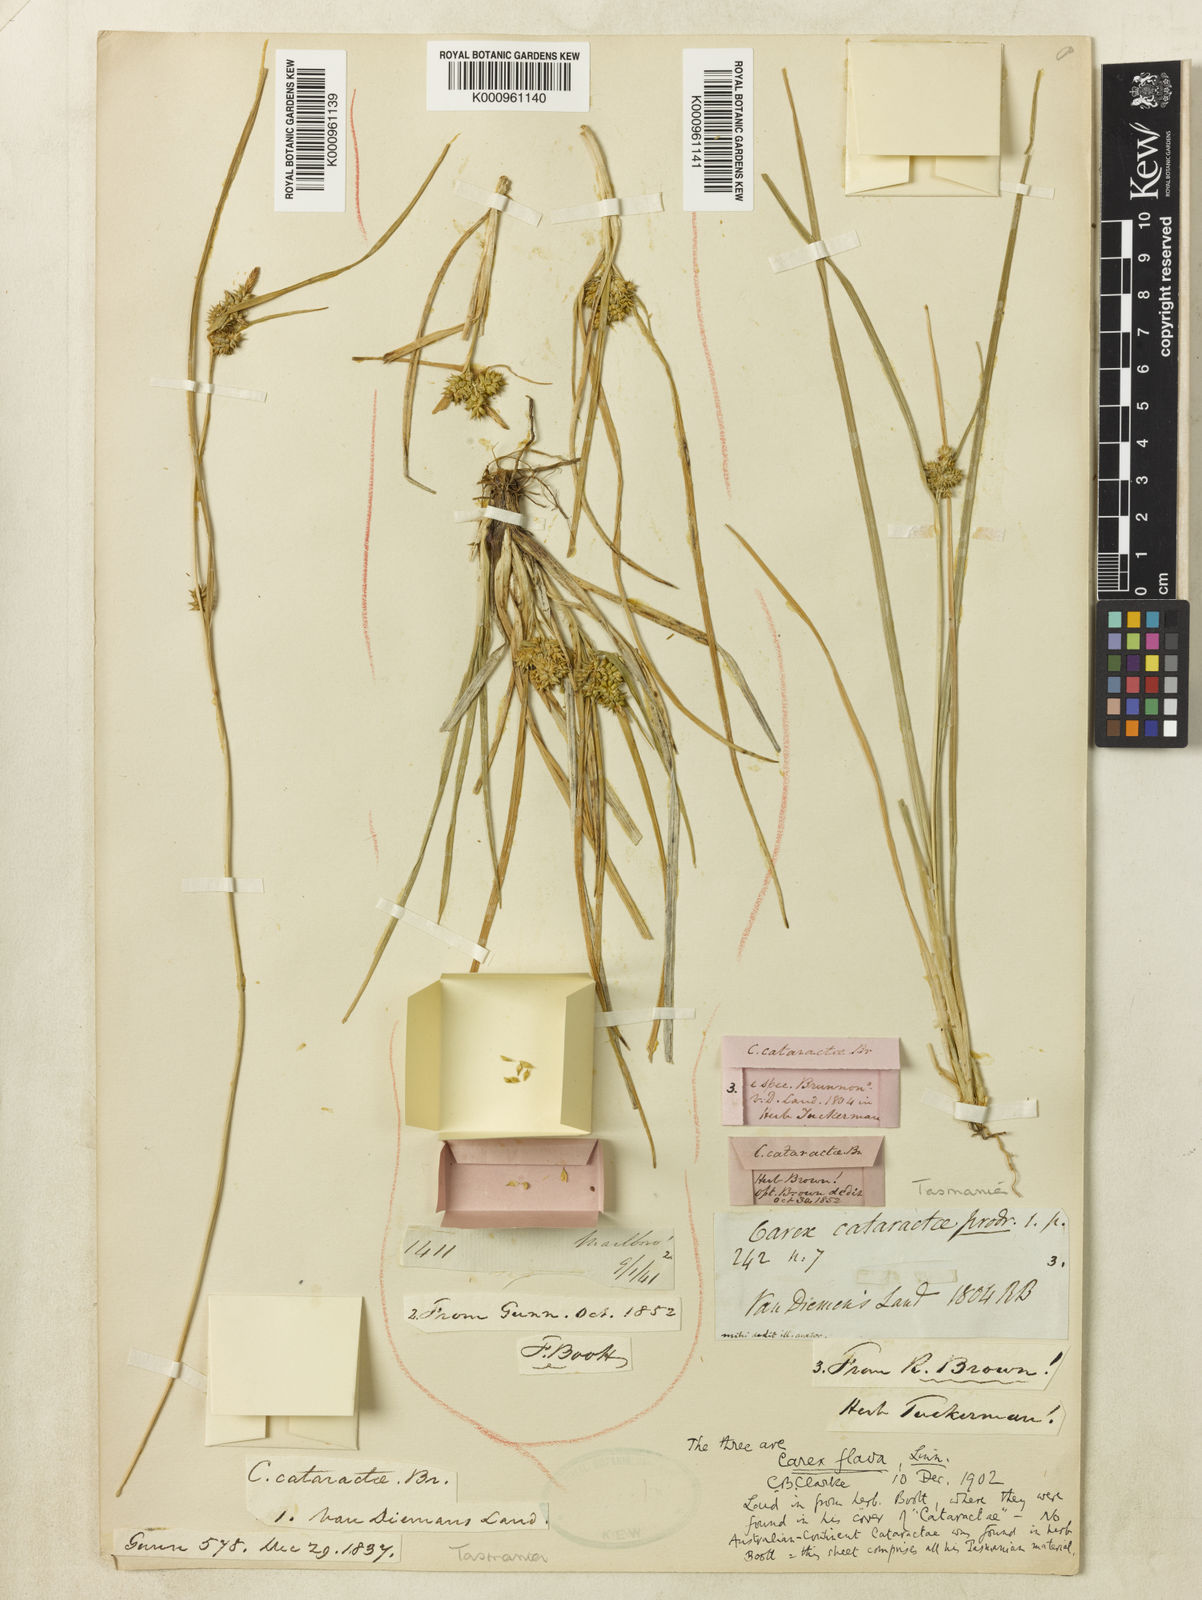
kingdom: Plantae
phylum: Tracheophyta
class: Liliopsida
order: Poales
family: Cyperaceae
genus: Carex
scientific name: Carex cataractae
